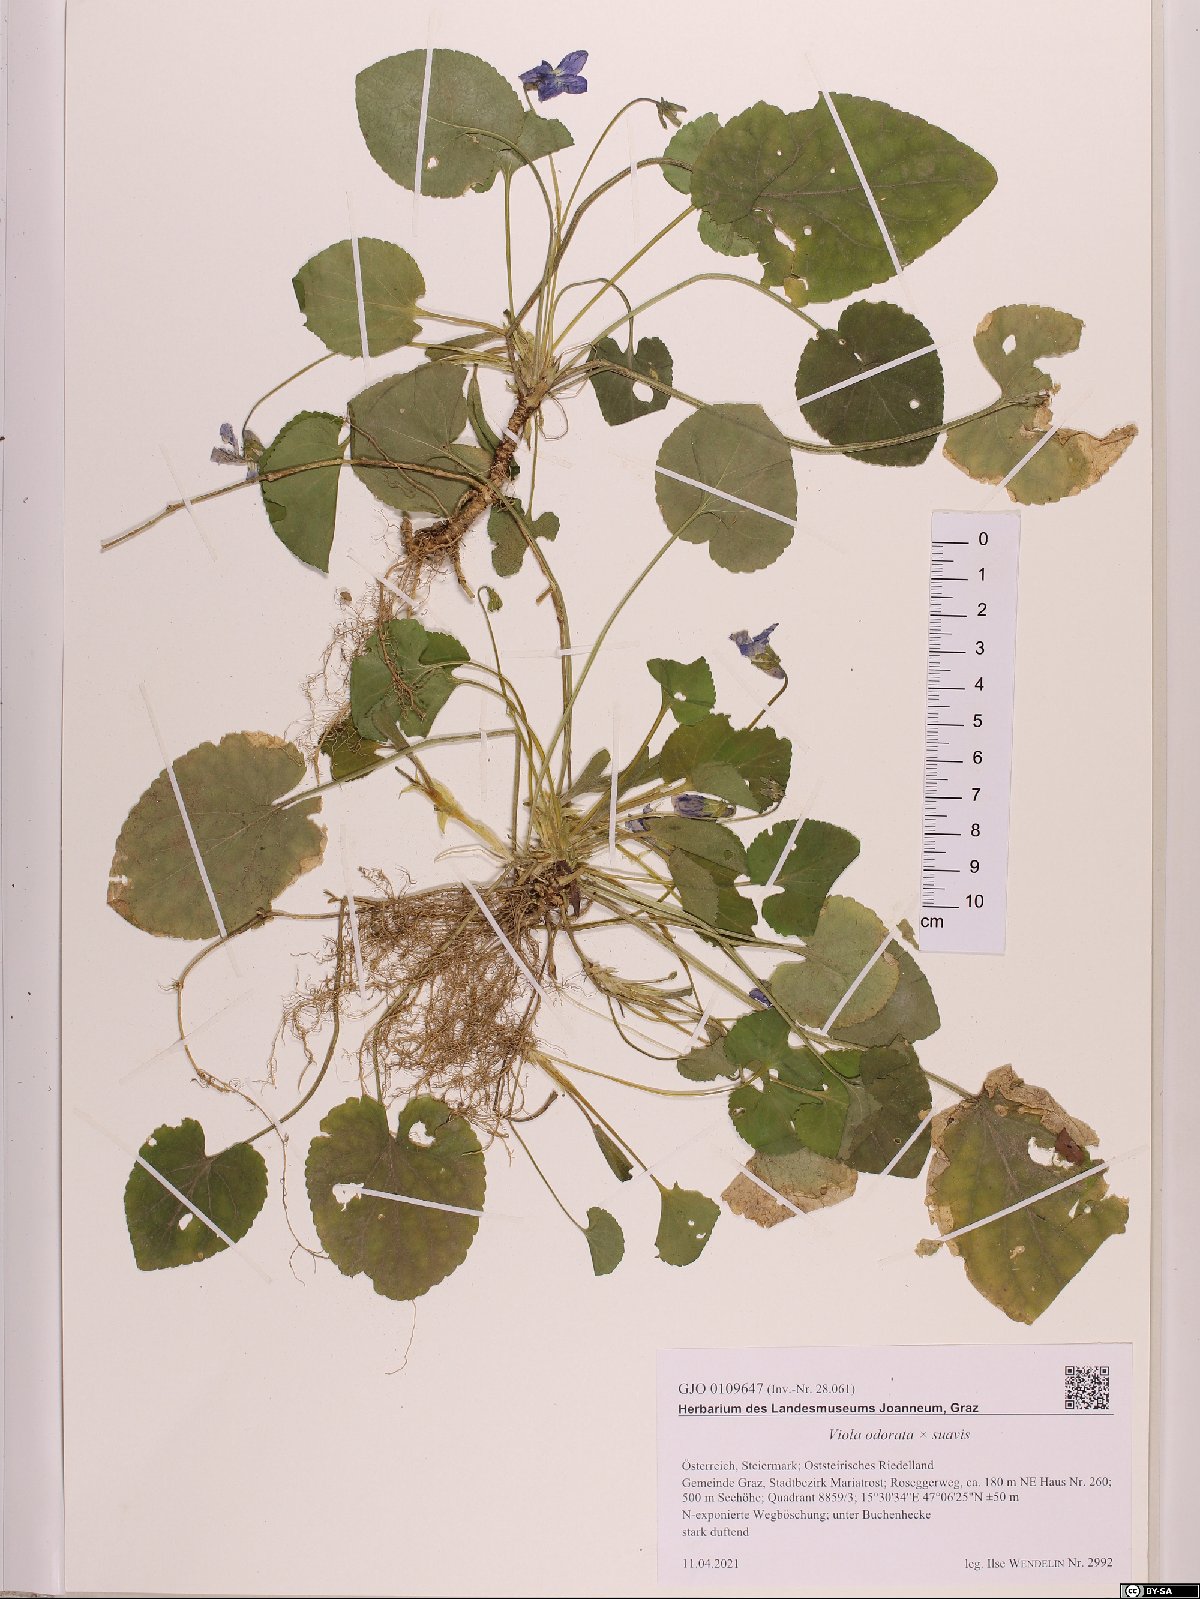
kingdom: Plantae
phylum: Tracheophyta
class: Magnoliopsida
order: Malpighiales
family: Violaceae
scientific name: Violaceae
